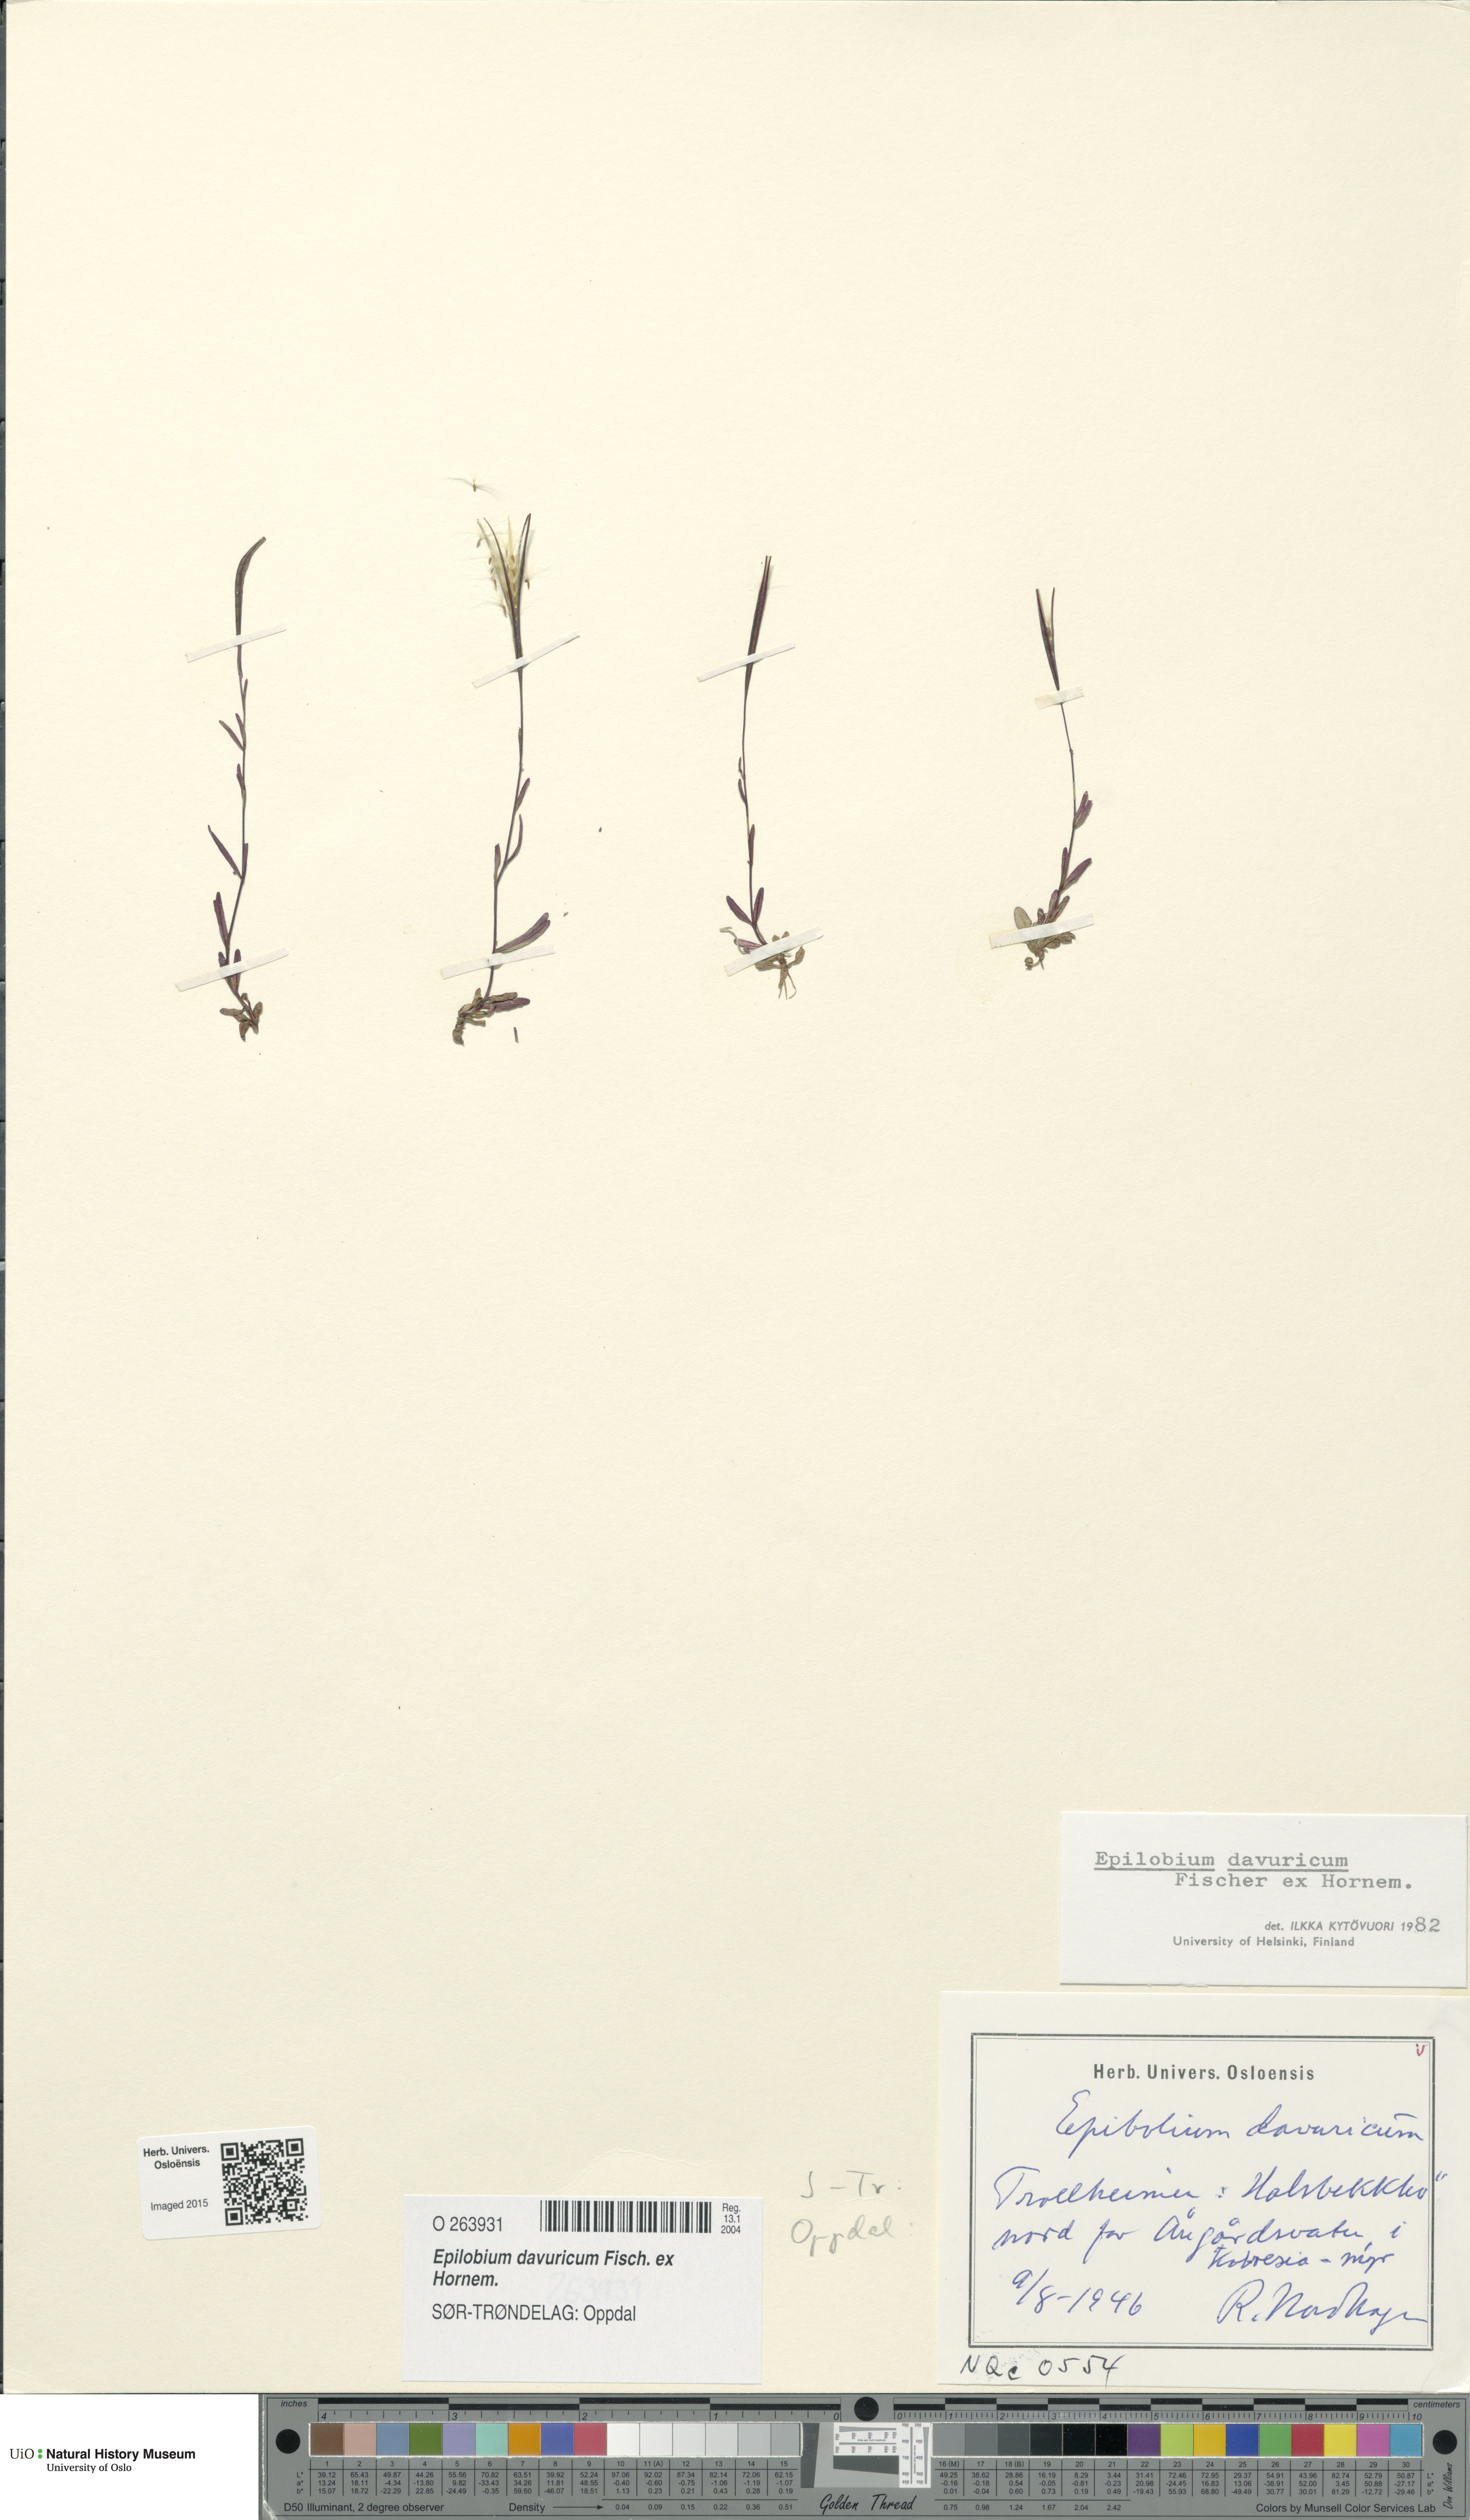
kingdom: Plantae
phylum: Tracheophyta
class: Magnoliopsida
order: Myrtales
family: Onagraceae
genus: Epilobium
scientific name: Epilobium davuricum
